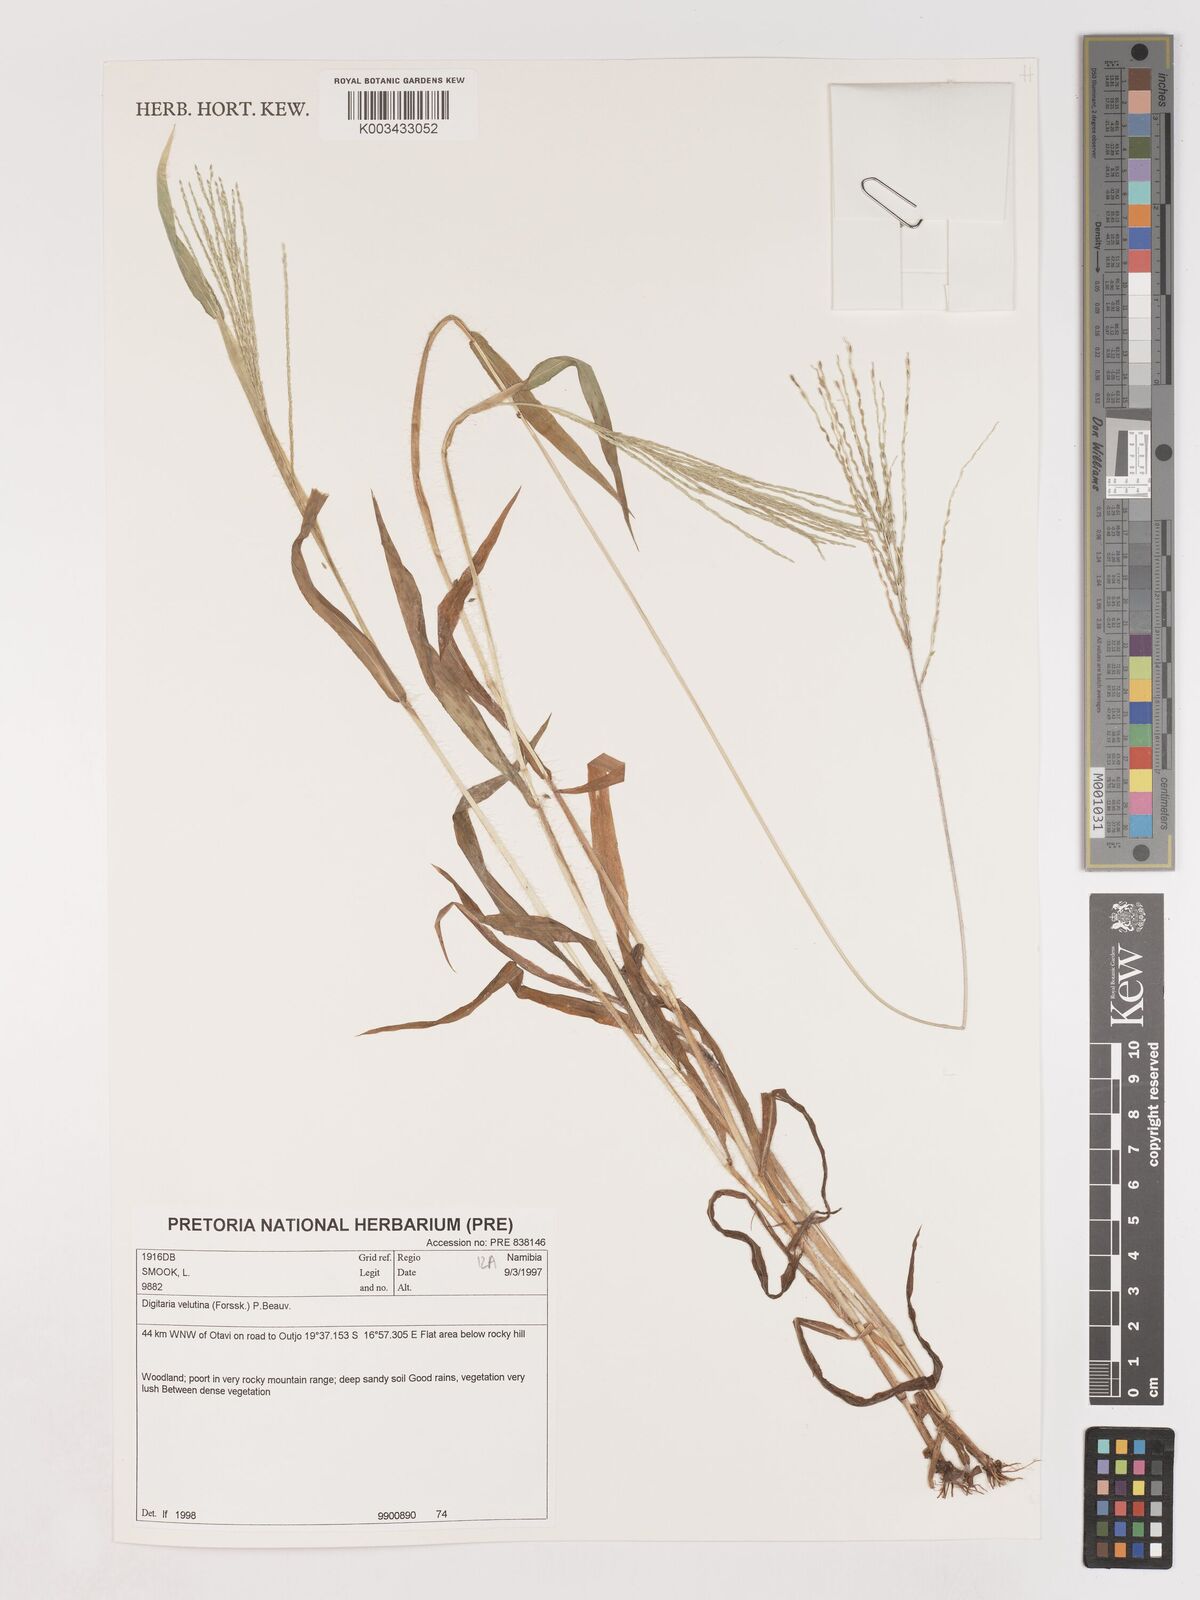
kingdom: Plantae
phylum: Tracheophyta
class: Liliopsida
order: Poales
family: Poaceae
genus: Digitaria
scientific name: Digitaria velutina
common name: Long-plume finger grass
